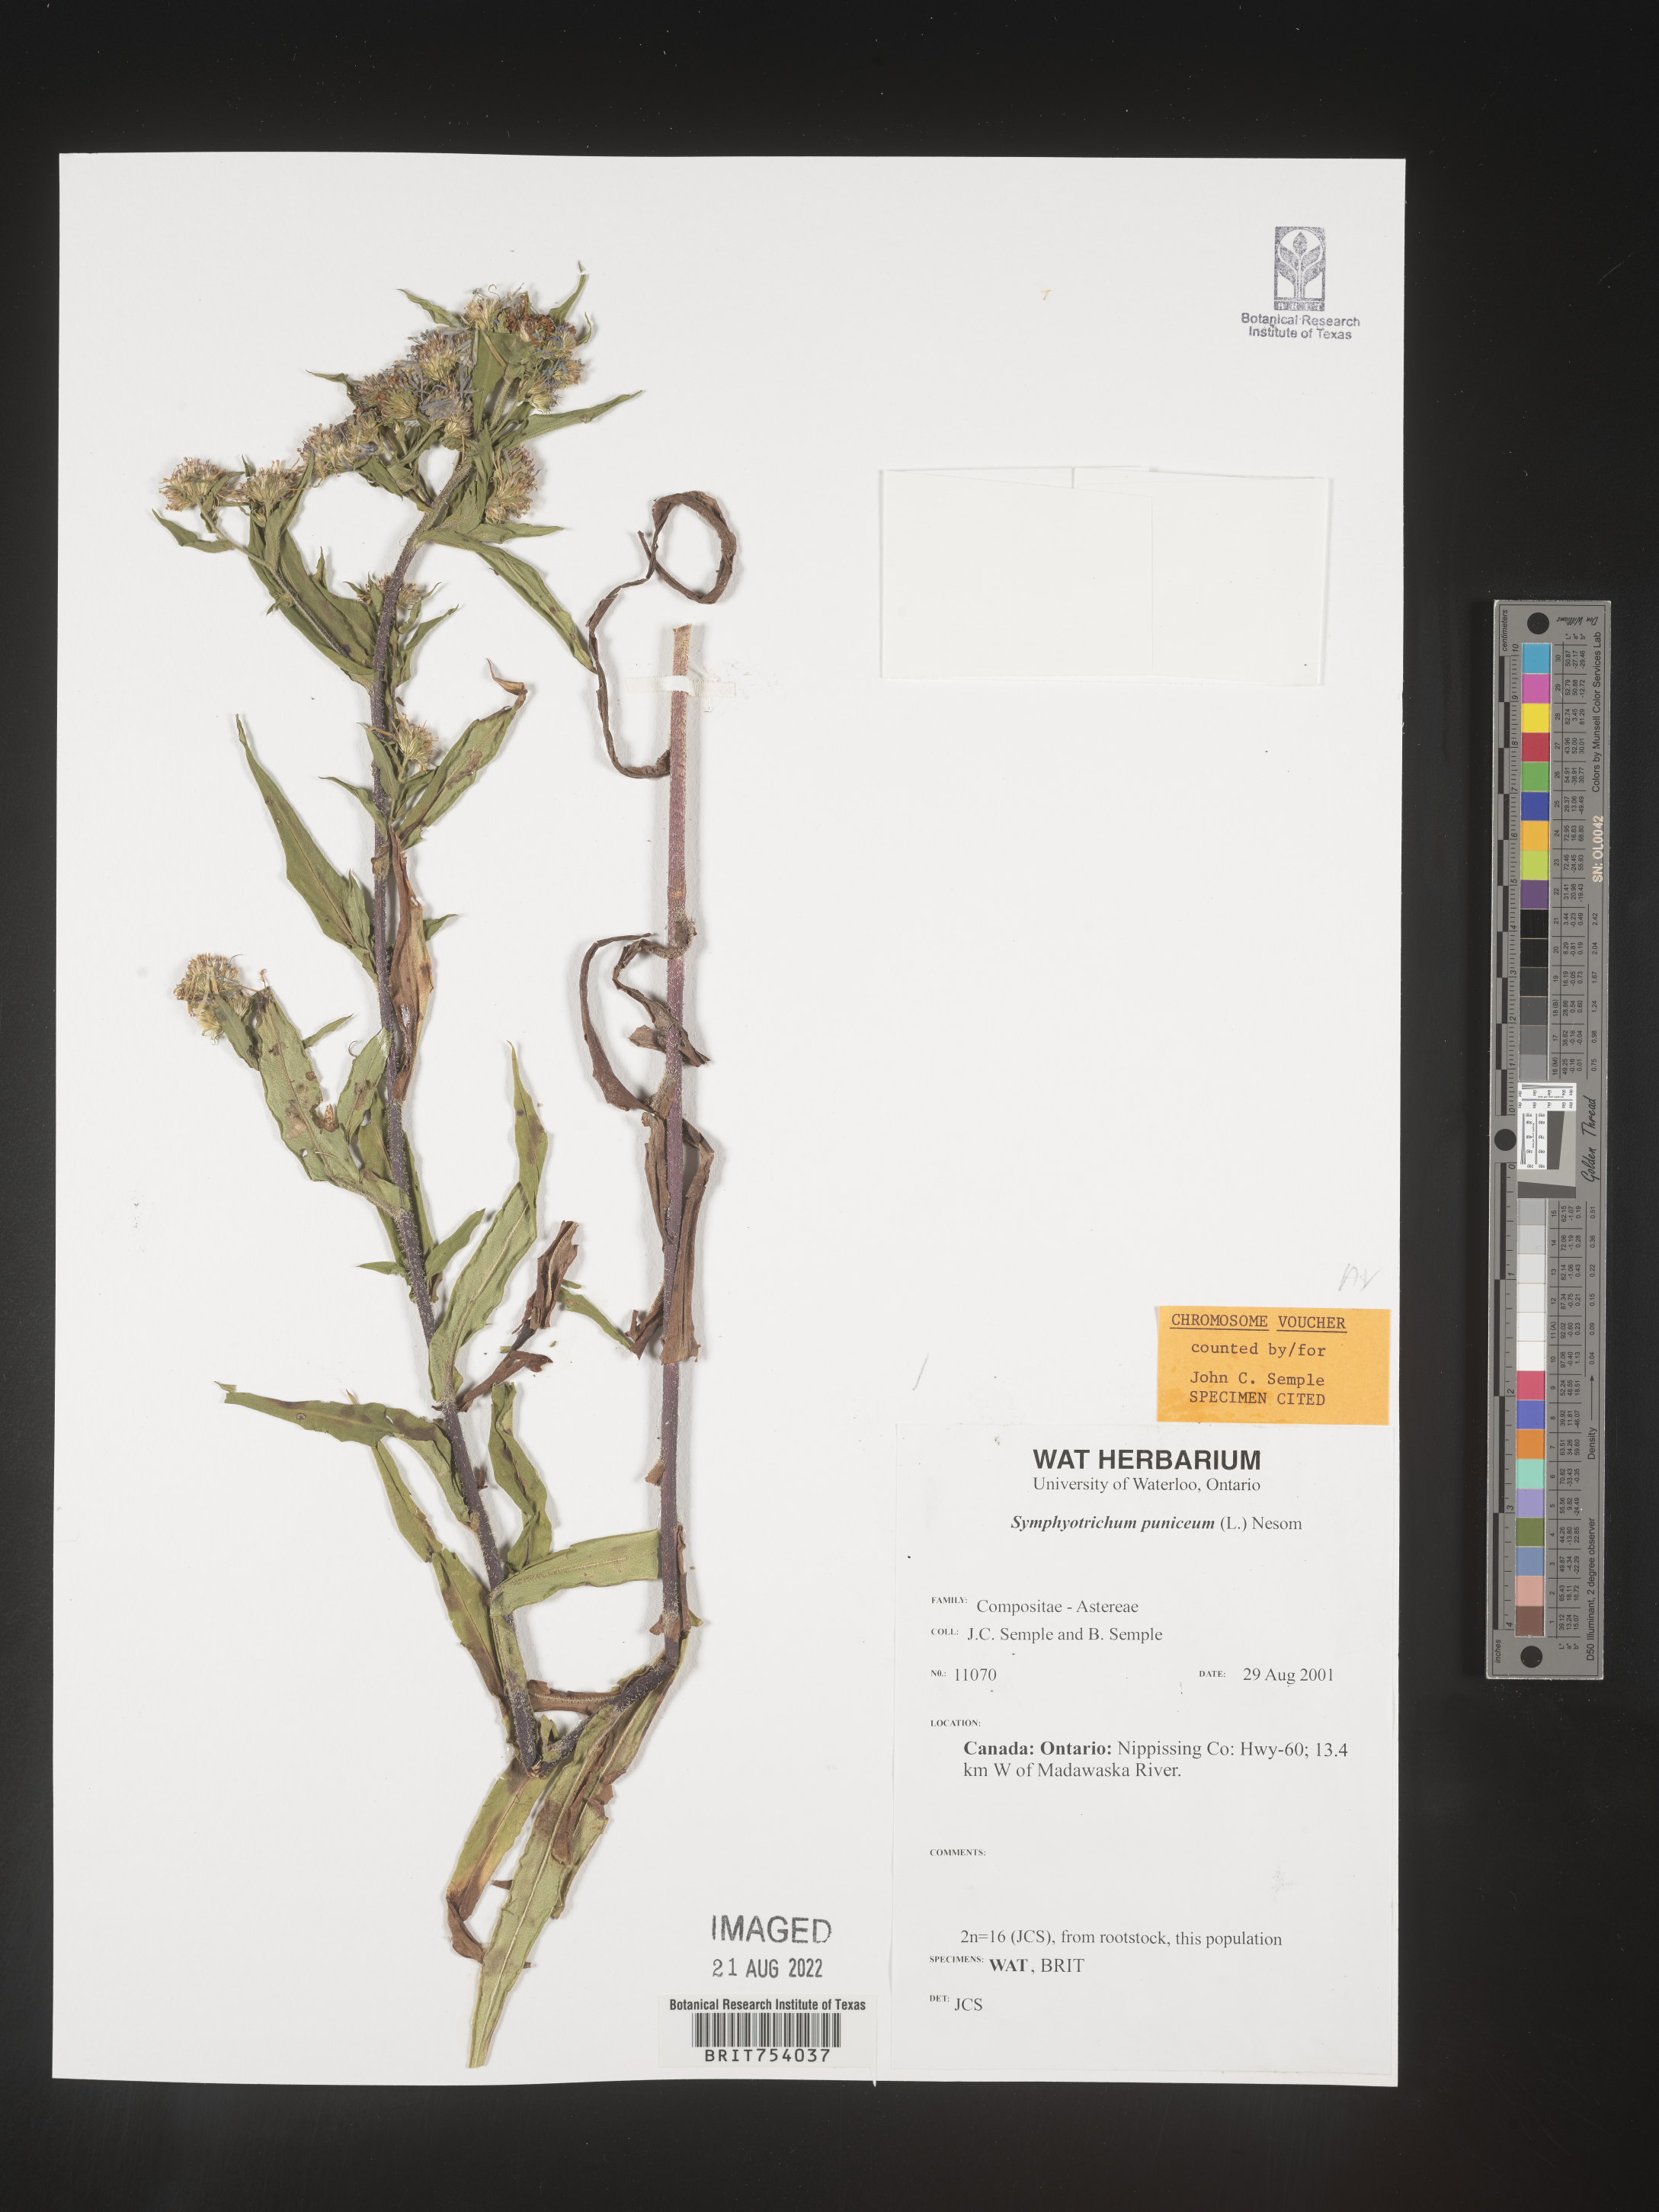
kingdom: Plantae
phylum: Tracheophyta
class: Magnoliopsida
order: Asterales
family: Asteraceae
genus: Symphyotrichum
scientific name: Symphyotrichum puniceum
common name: Bog aster
